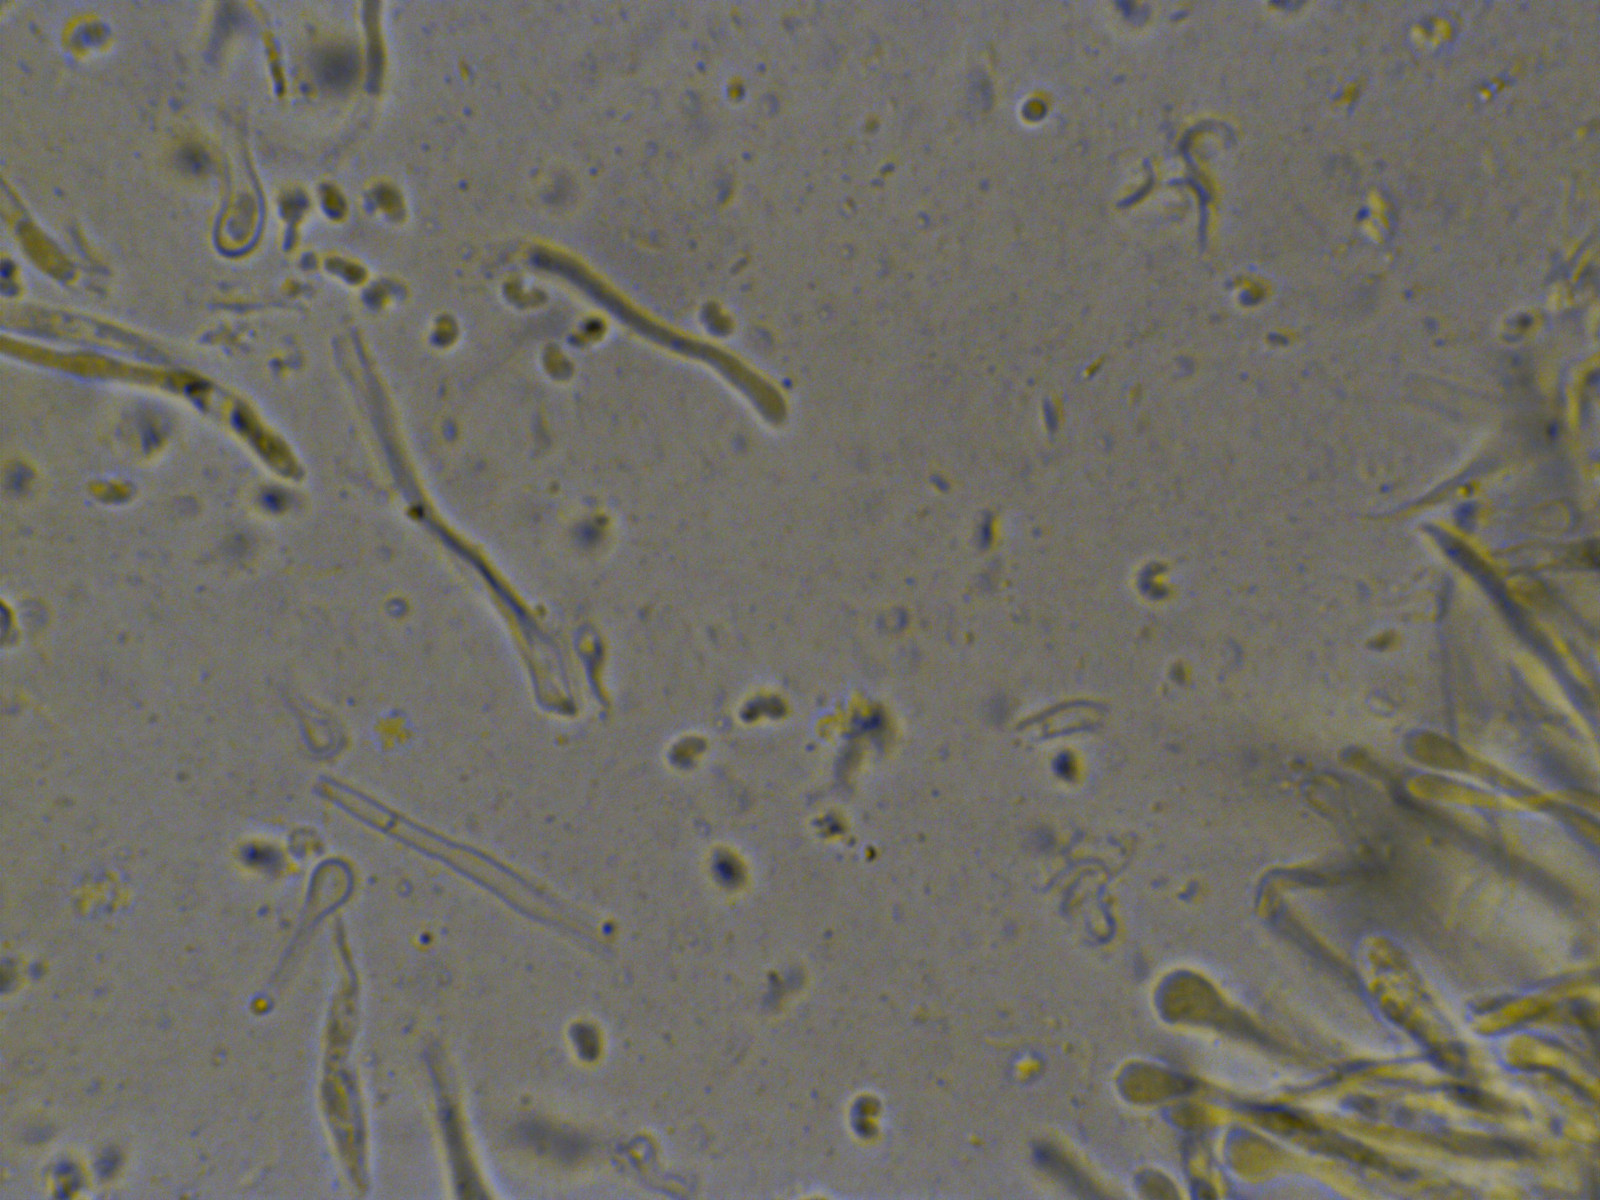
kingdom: Fungi
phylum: Ascomycota
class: Orbiliomycetes
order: Orbiliales
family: Orbiliaceae
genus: Orbilia
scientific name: Orbilia xanthostigma
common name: krumsporet voksskive
